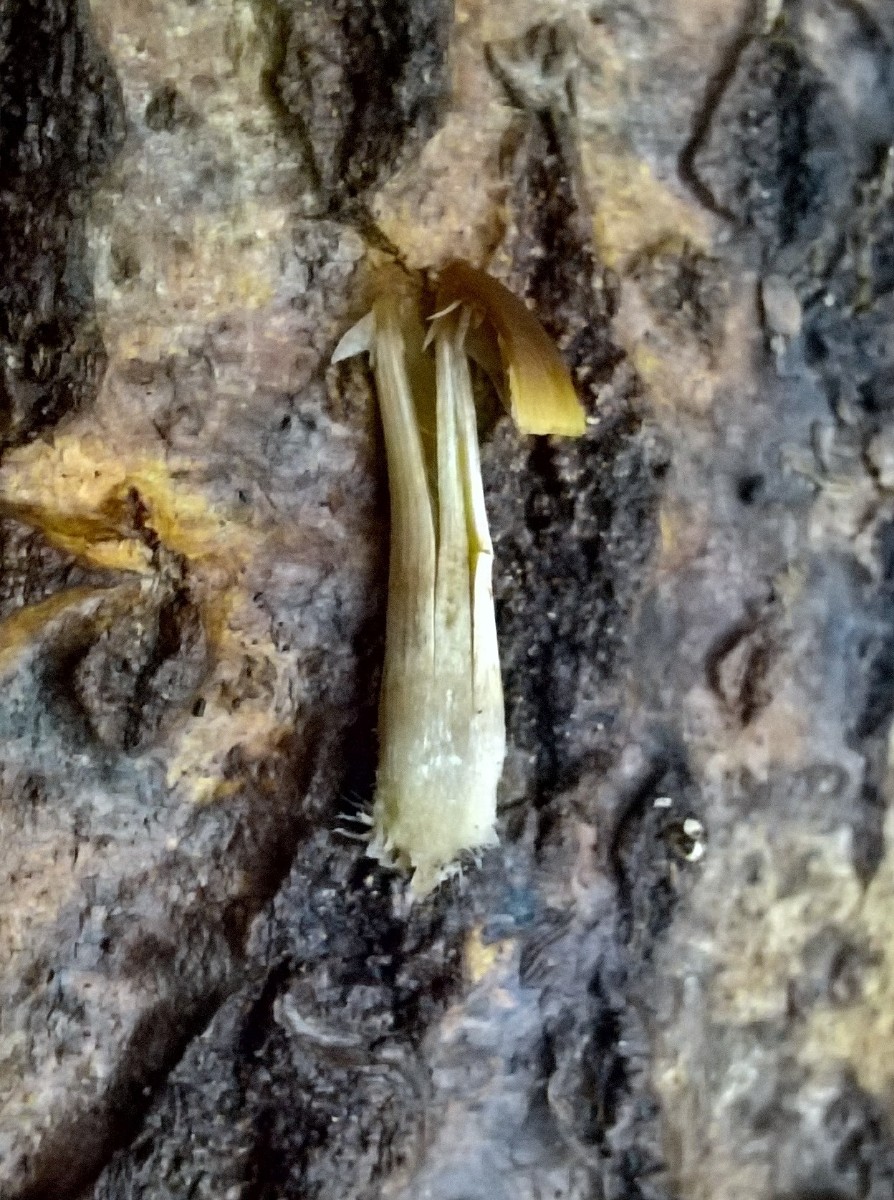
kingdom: Fungi
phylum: Basidiomycota
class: Agaricomycetes
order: Agaricales
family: Psathyrellaceae
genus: Psathyrella
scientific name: Psathyrella microrhiza
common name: rod-mørkhat
